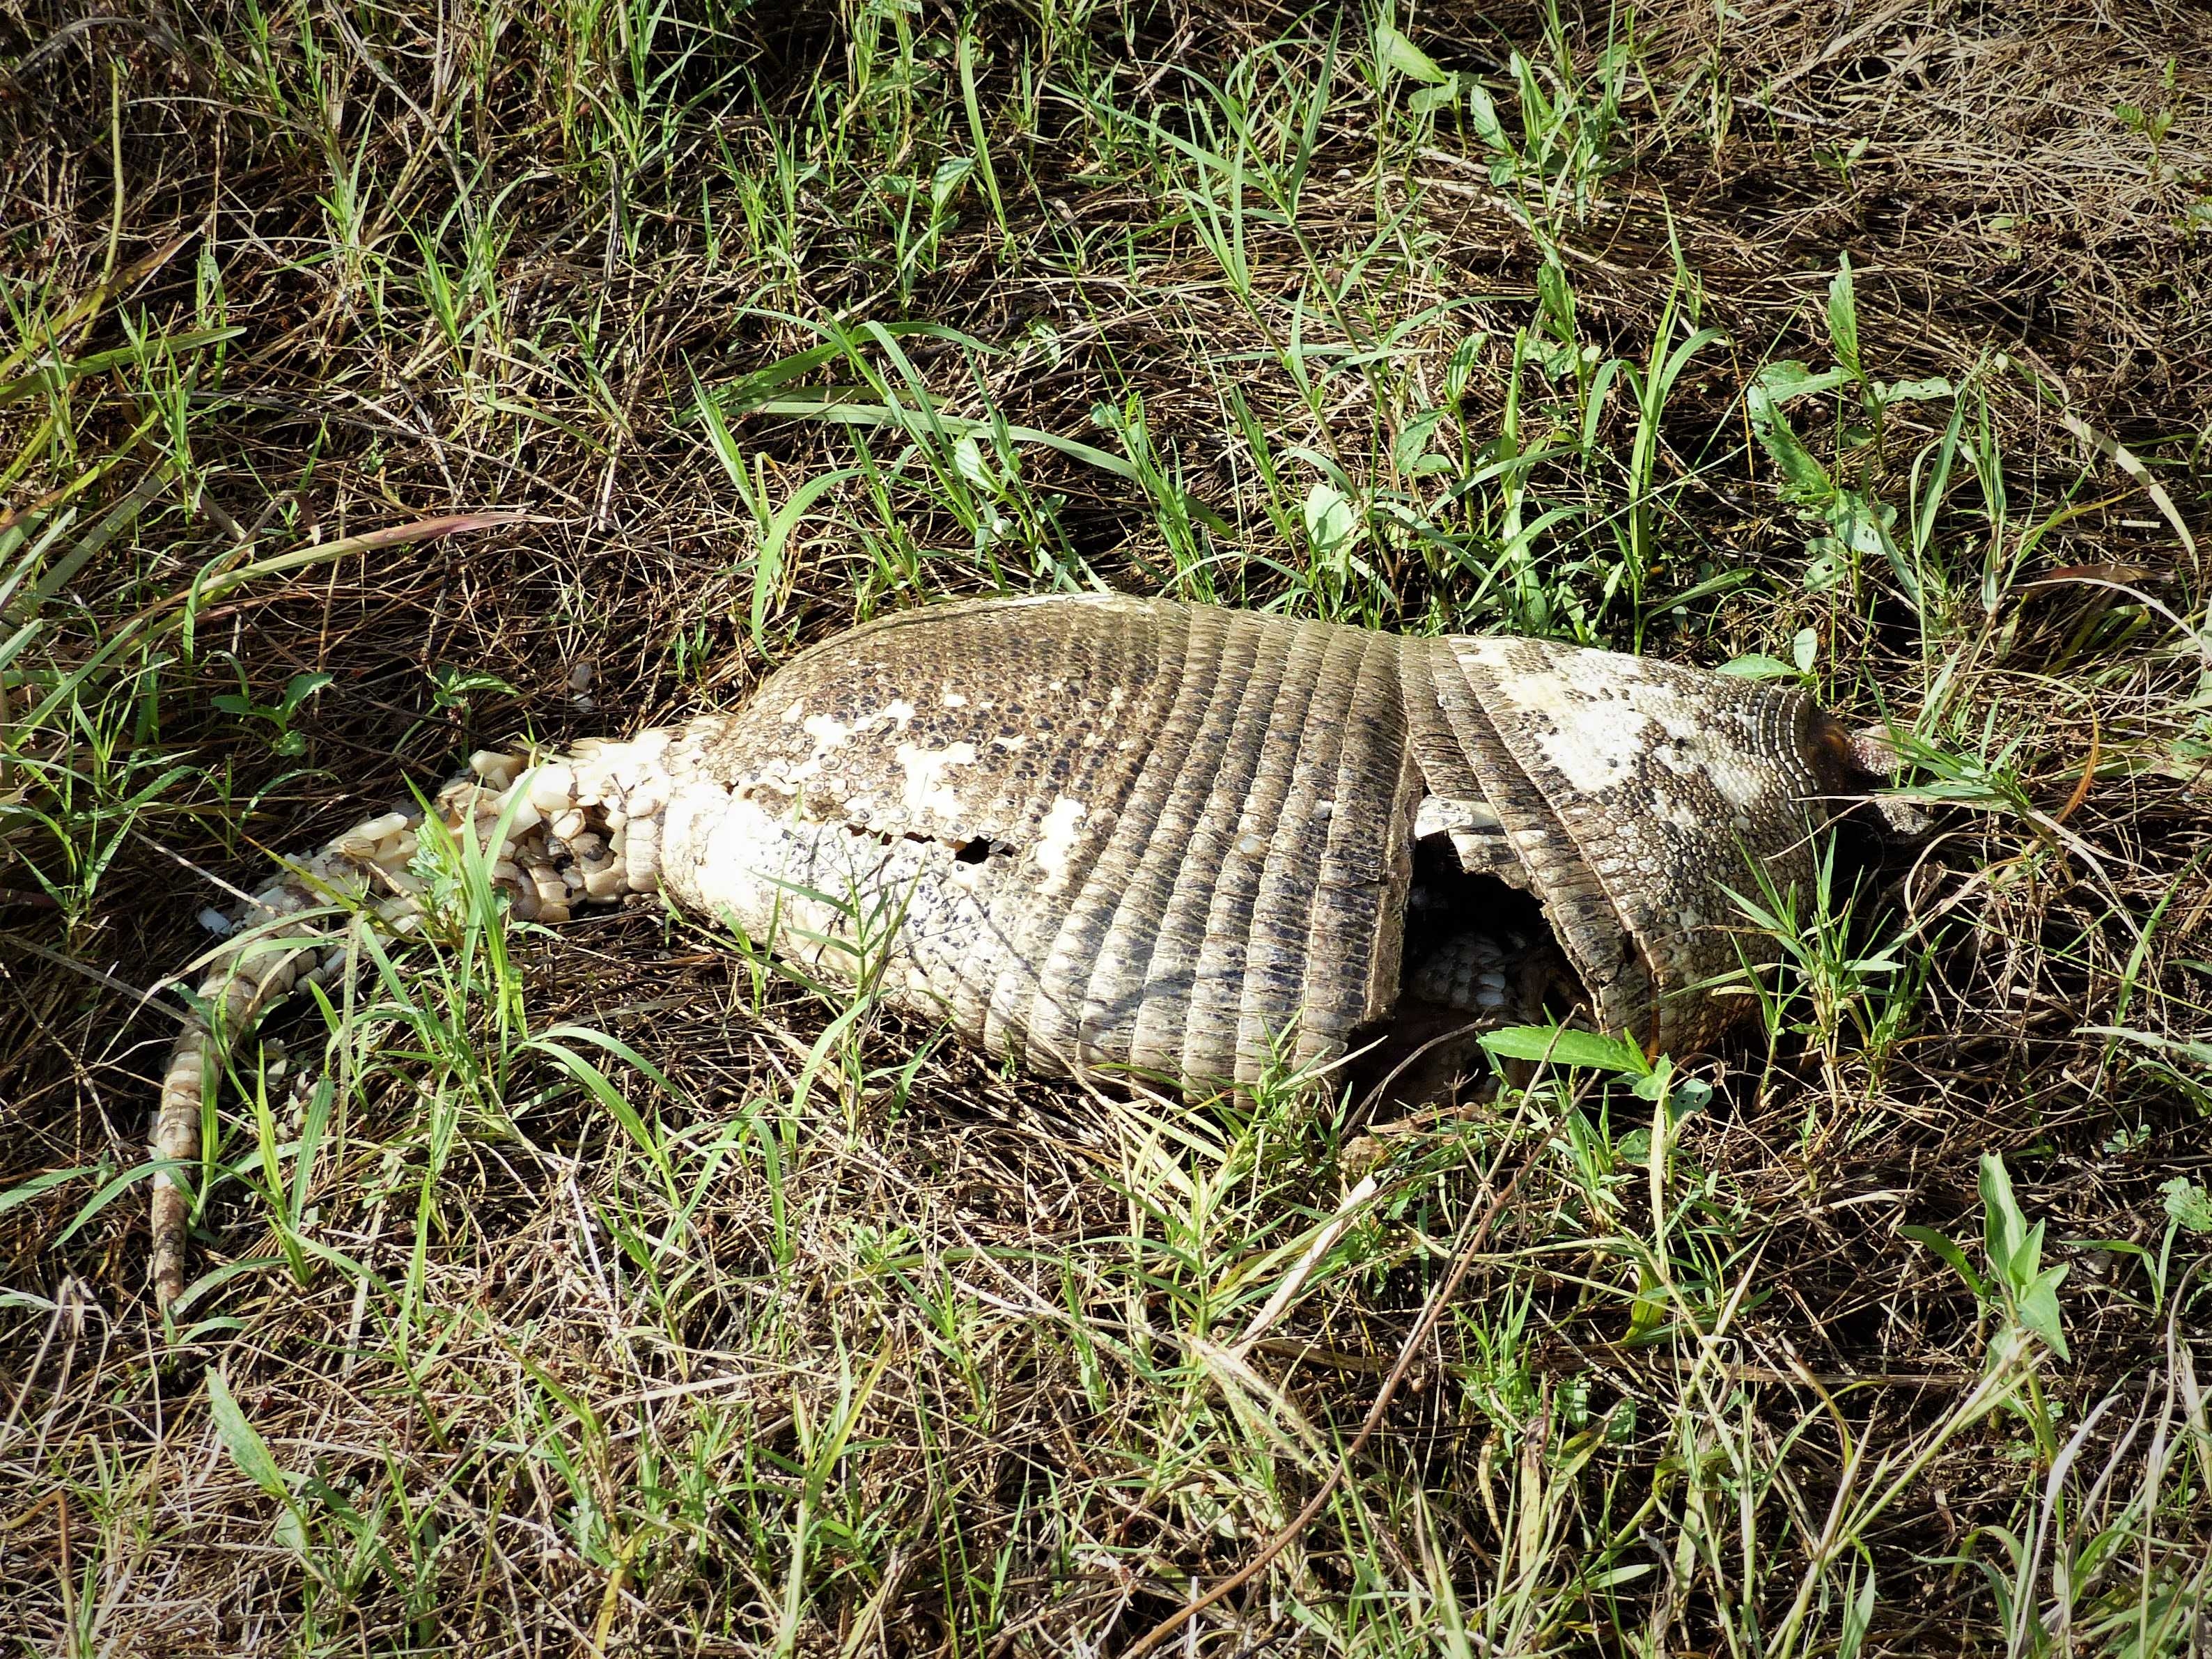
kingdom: Animalia
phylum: Chordata
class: Mammalia
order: Cingulata
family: Dasypodidae
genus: Dasypus
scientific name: Dasypus novemcinctus
